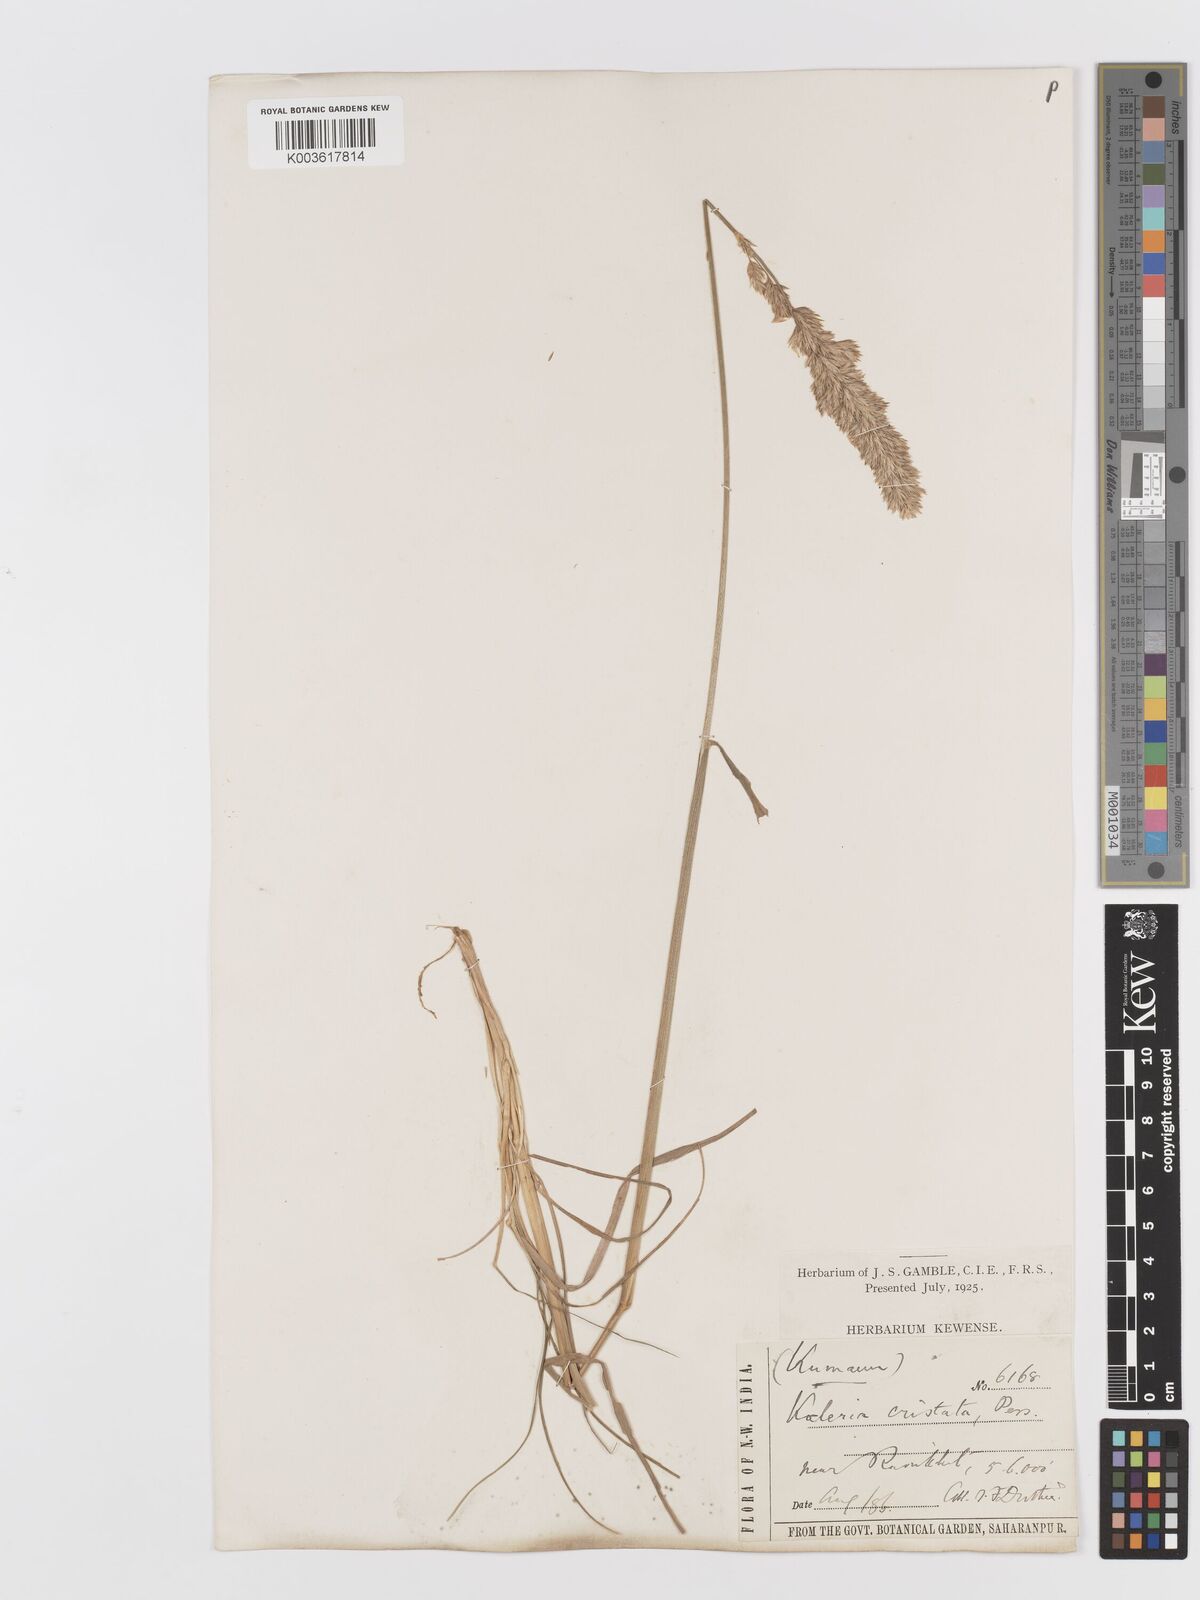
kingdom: Plantae
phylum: Tracheophyta
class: Liliopsida
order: Poales
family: Poaceae
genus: Koeleria
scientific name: Koeleria macrantha
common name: Crested hair-grass
